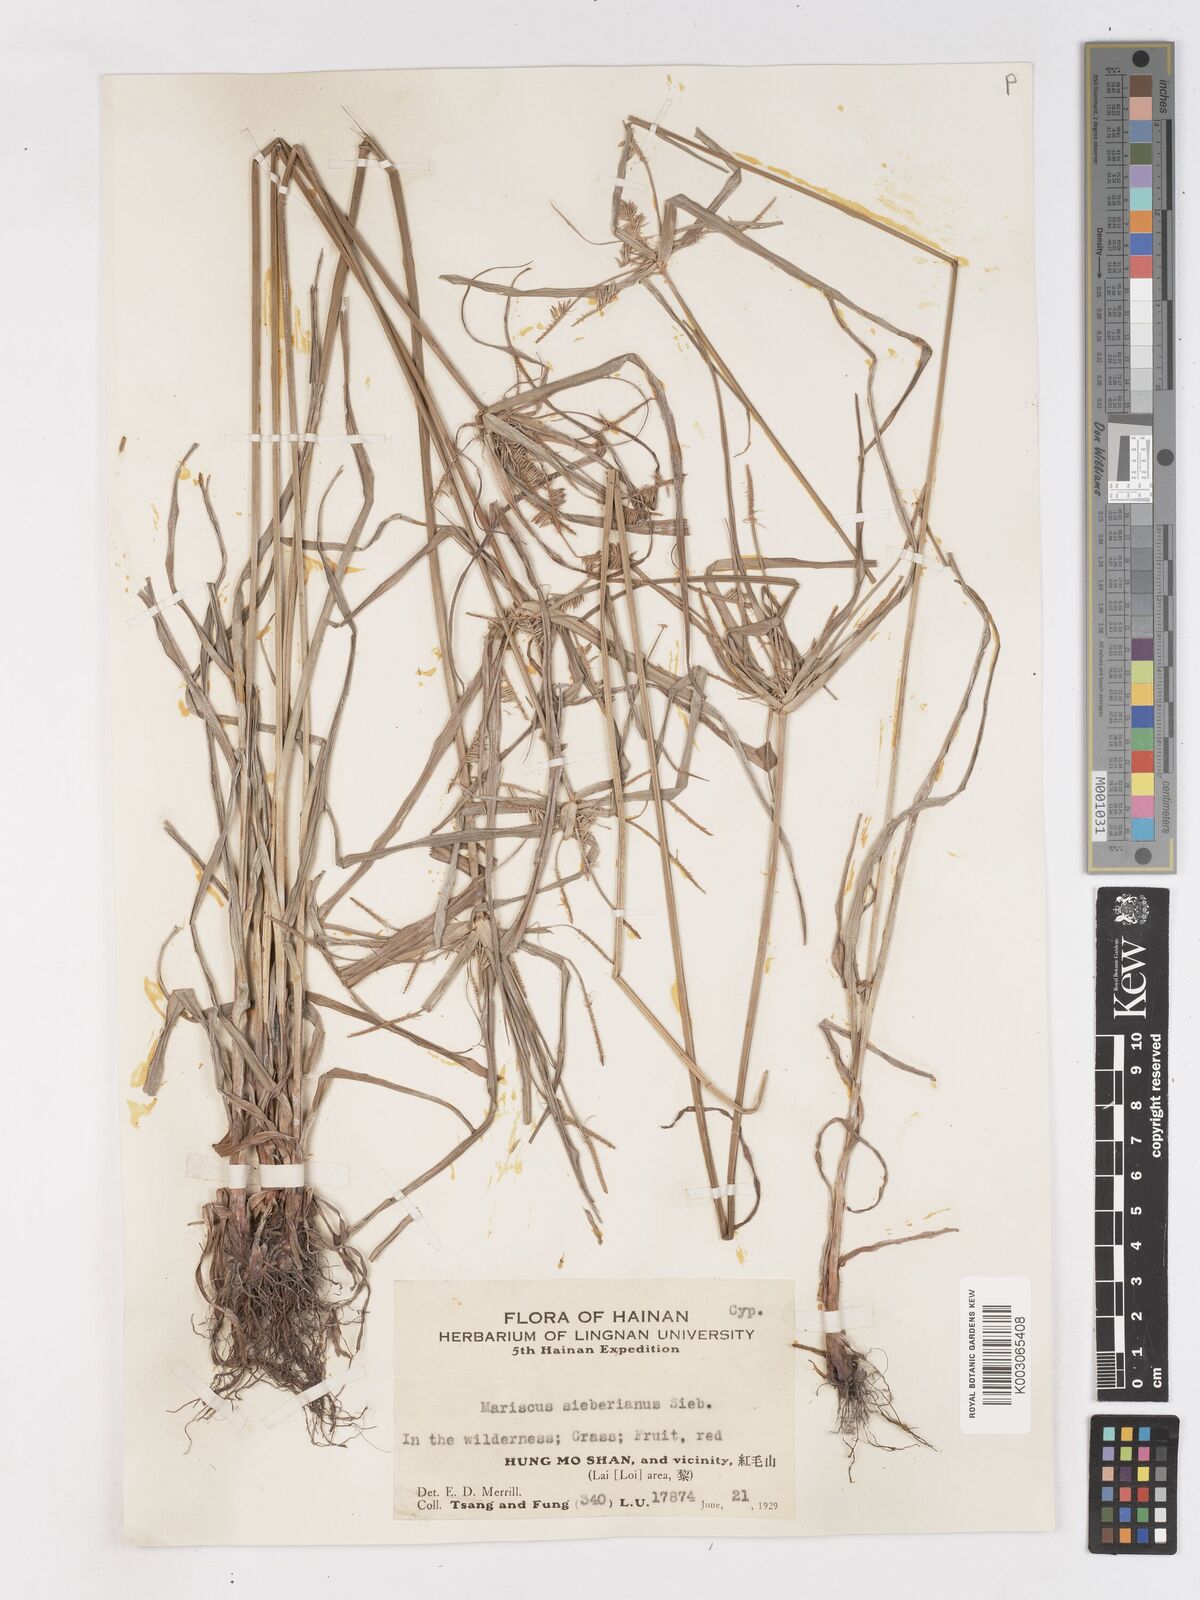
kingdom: Plantae
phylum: Tracheophyta
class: Liliopsida
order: Poales
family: Cyperaceae
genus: Cyperus
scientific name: Cyperus cyperoides
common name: Pacific island flat sedge
